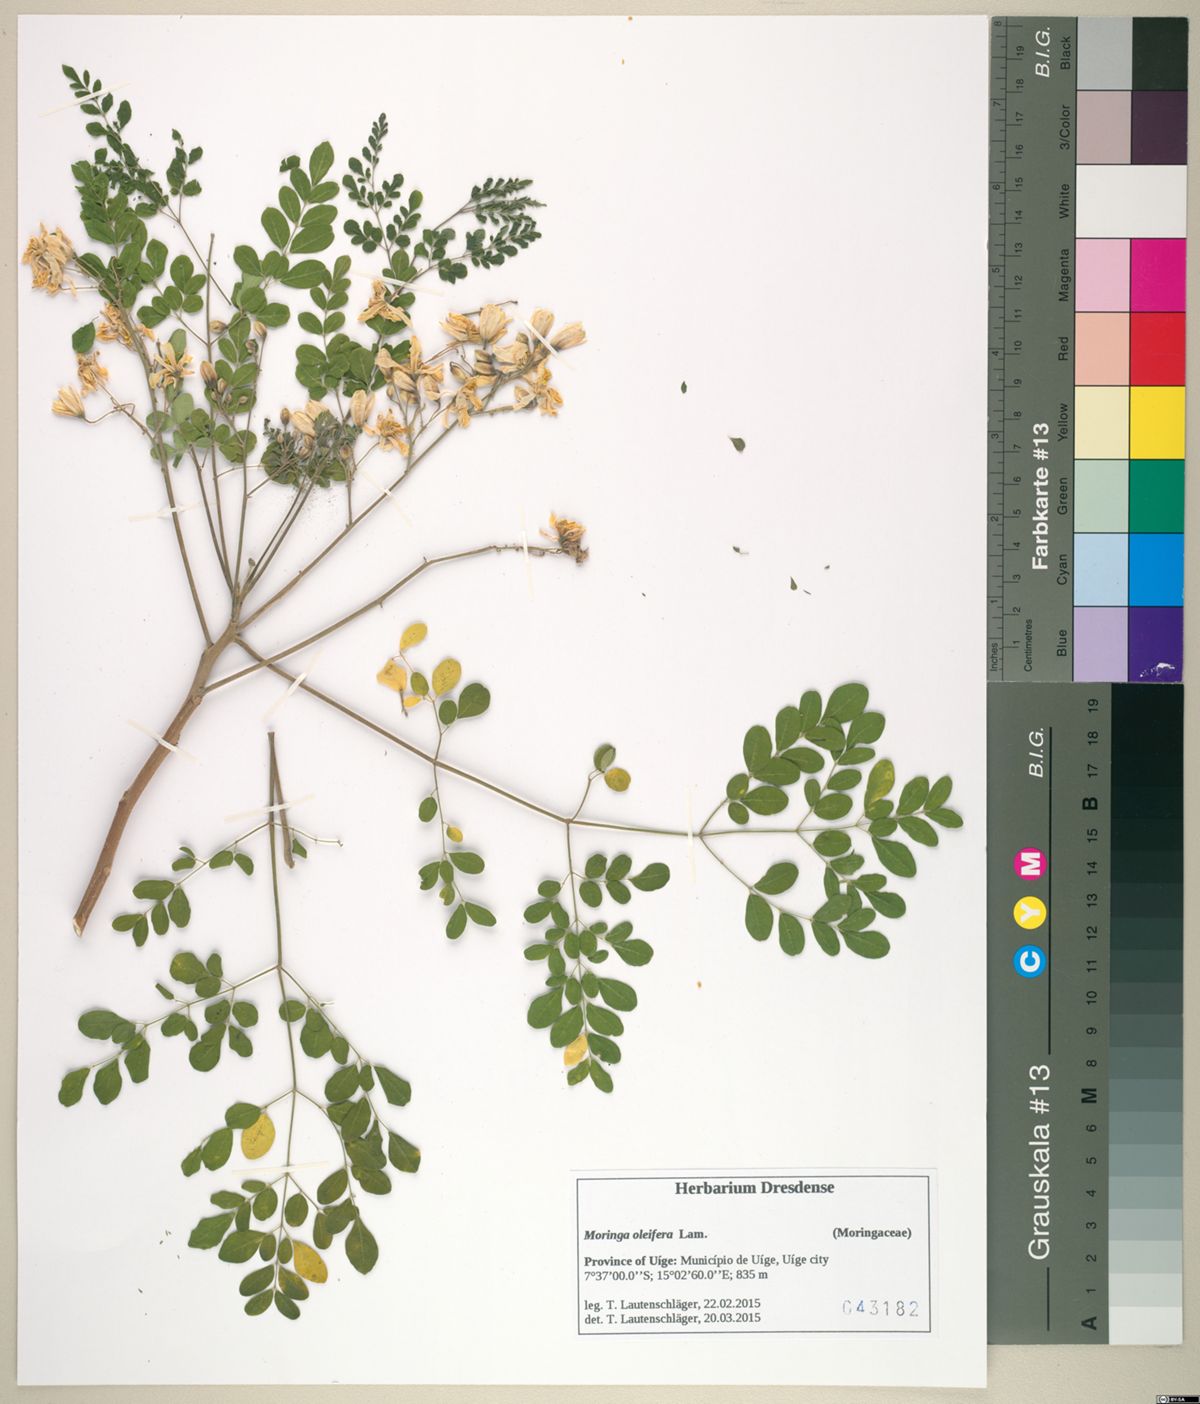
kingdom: Plantae
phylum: Tracheophyta
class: Magnoliopsida
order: Brassicales
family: Moringaceae
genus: Moringa
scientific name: Moringa oleifera
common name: Horseradish-tree
